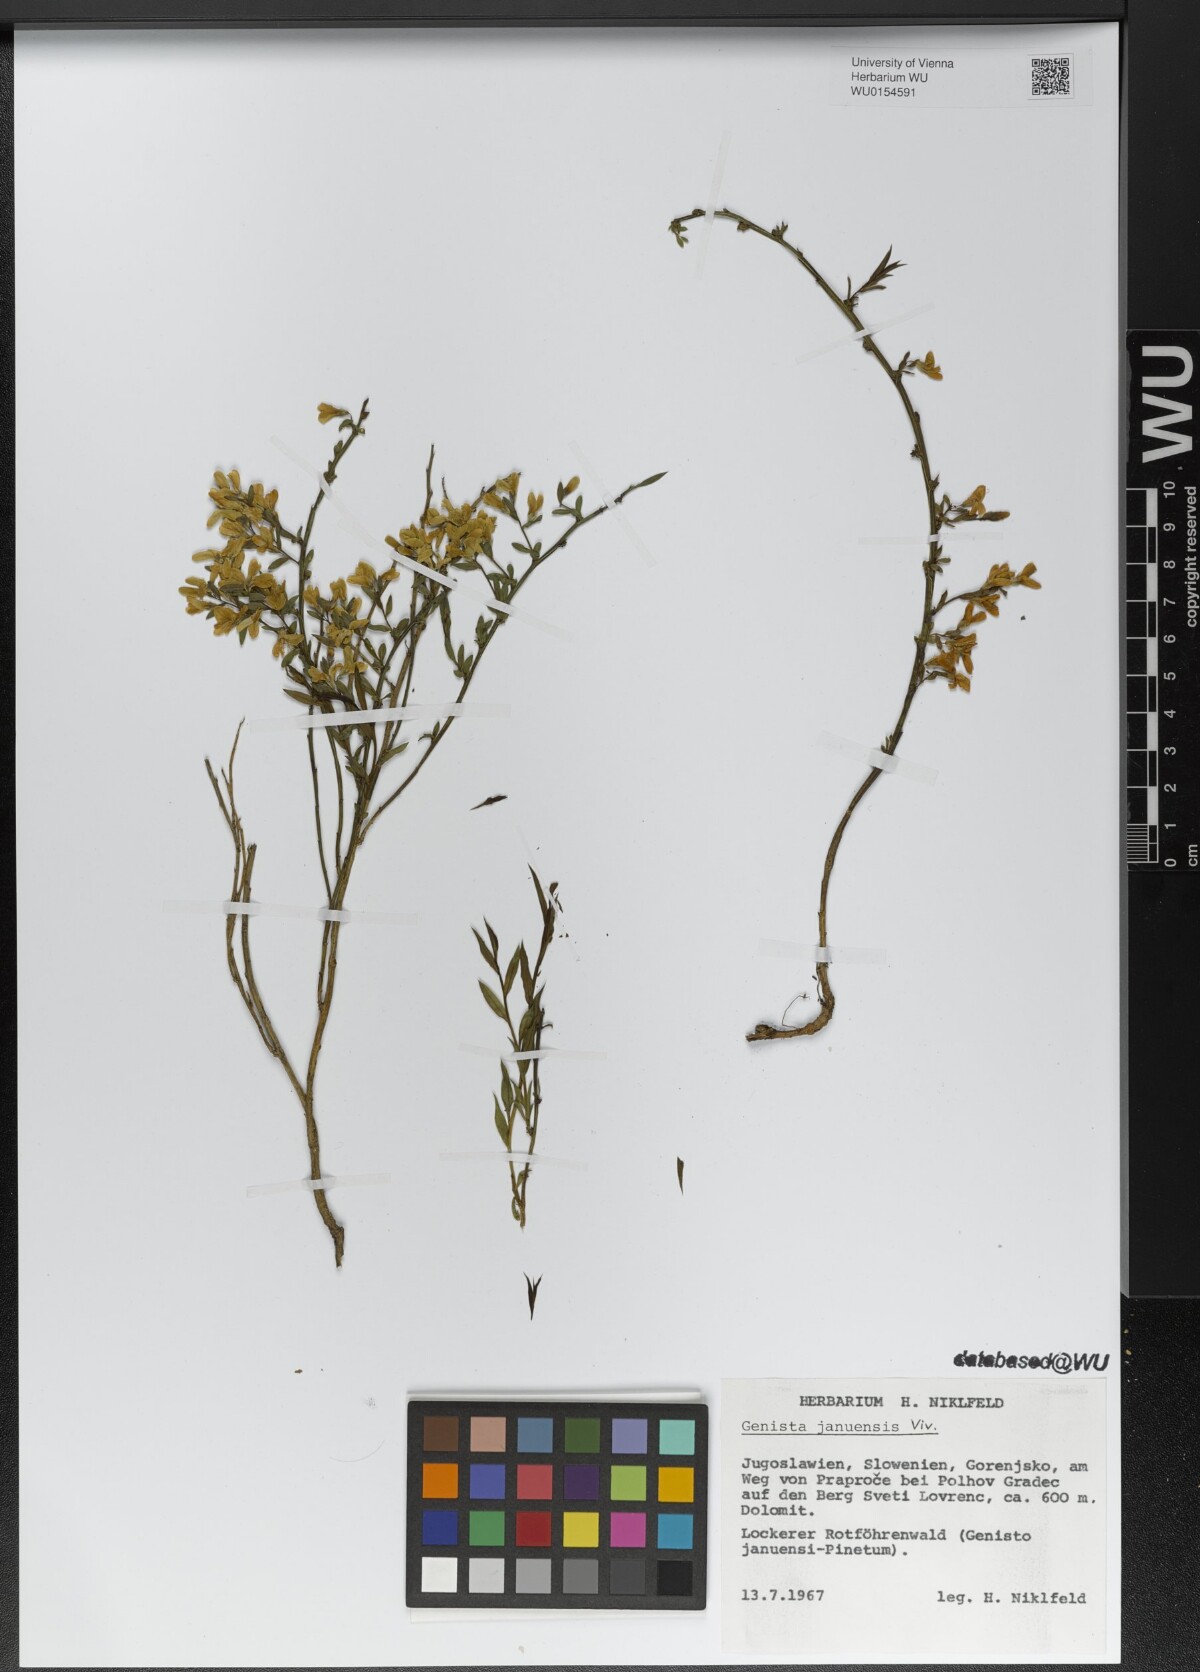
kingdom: Plantae
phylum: Tracheophyta
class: Magnoliopsida
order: Fabales
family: Fabaceae
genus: Genista
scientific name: Genista januensis
